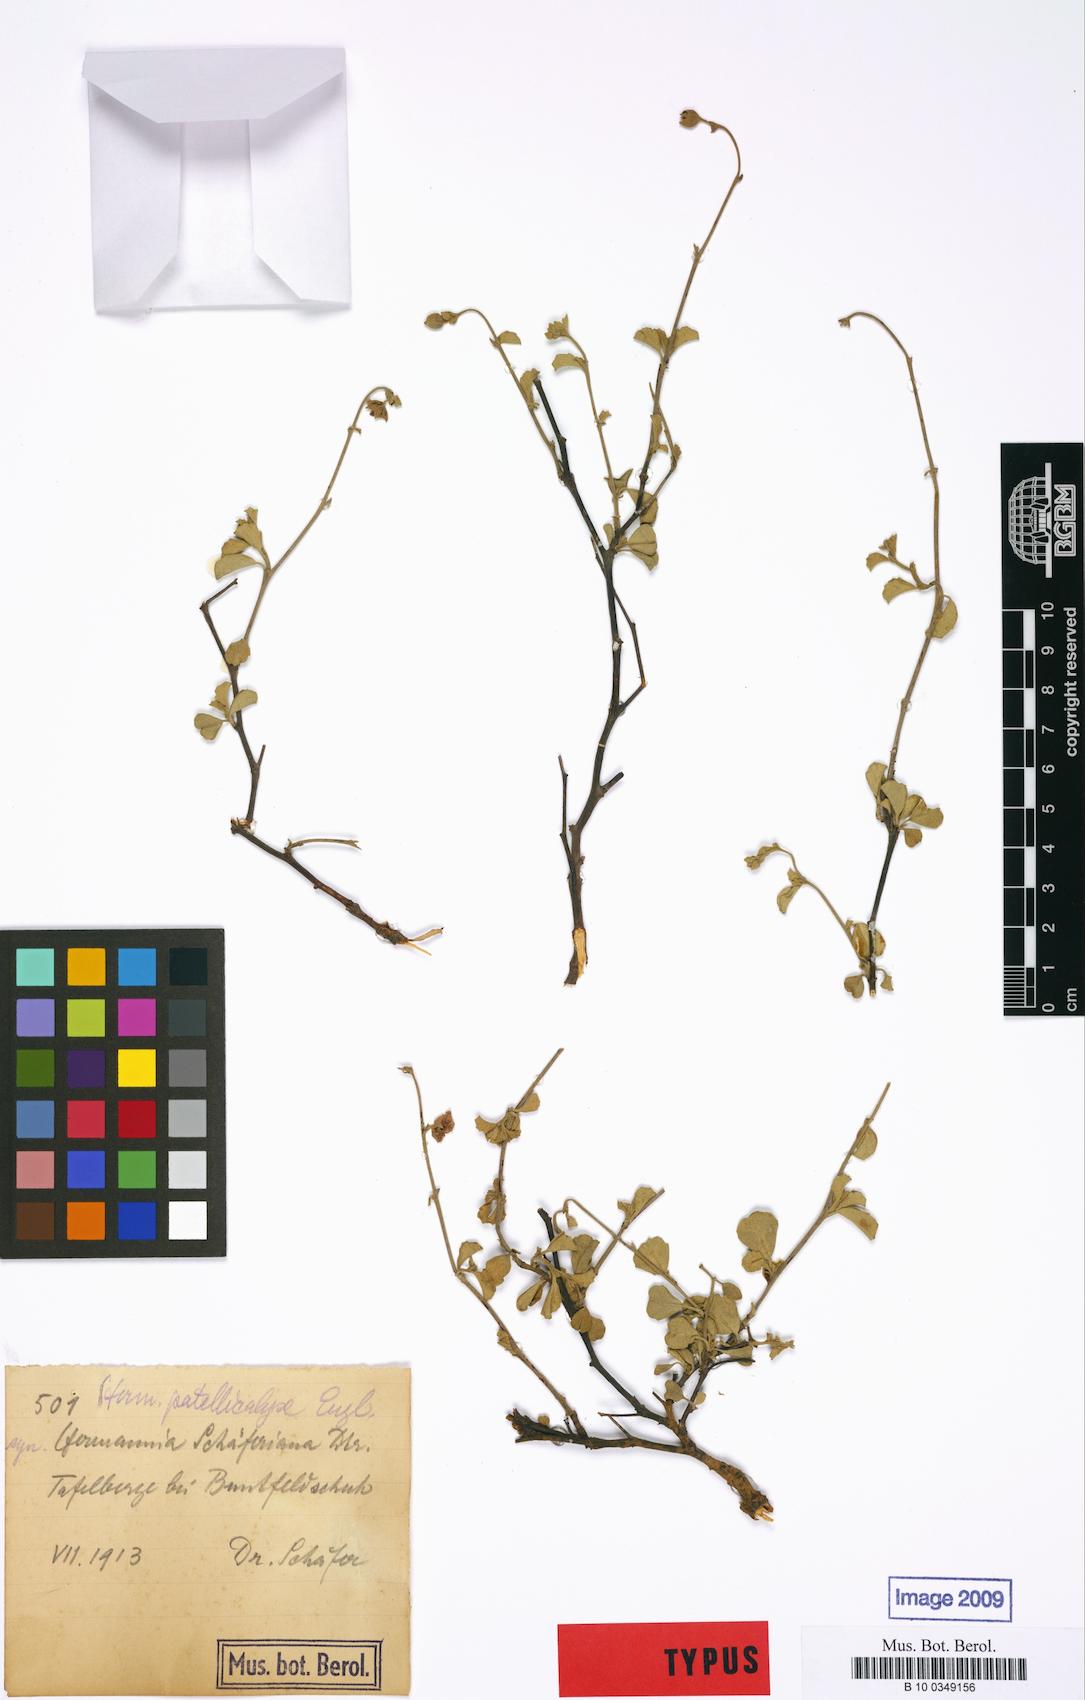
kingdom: Plantae
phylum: Tracheophyta
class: Magnoliopsida
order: Malvales
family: Malvaceae
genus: Hermannia
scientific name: Hermannia pfeilii
